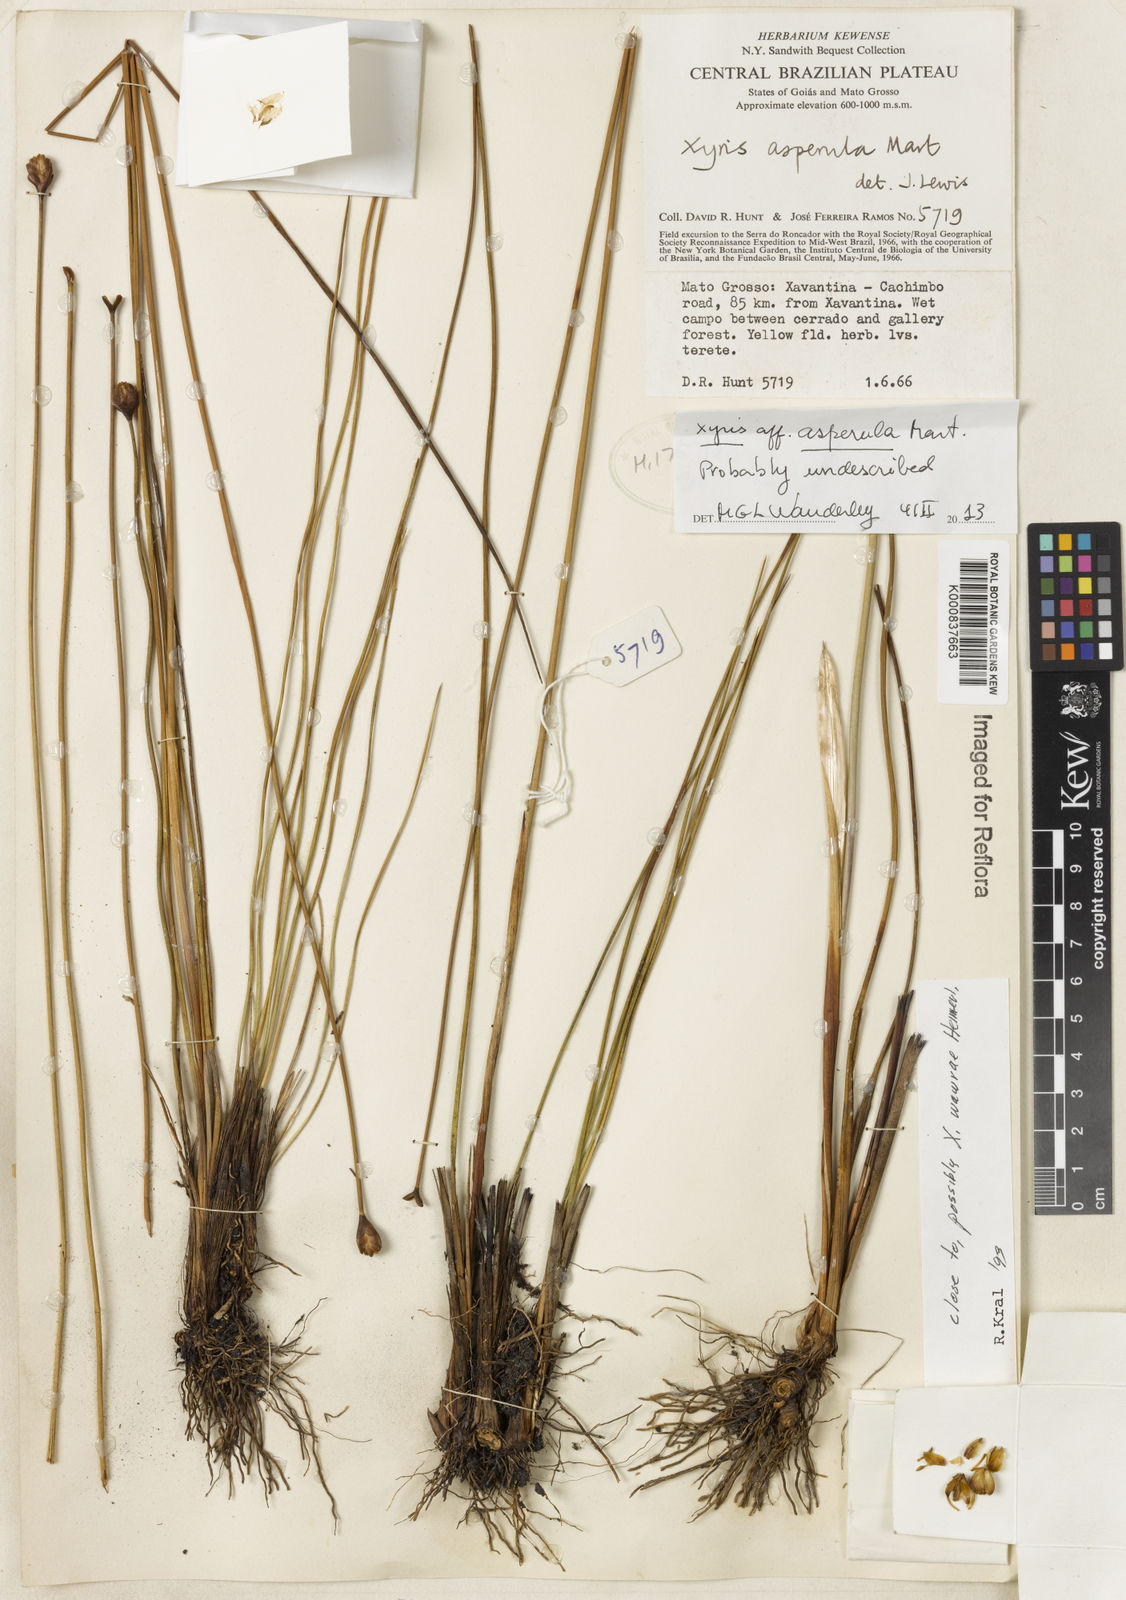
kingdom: Plantae
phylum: Tracheophyta
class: Liliopsida
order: Poales
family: Xyridaceae
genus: Xyris
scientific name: Xyris asperula
